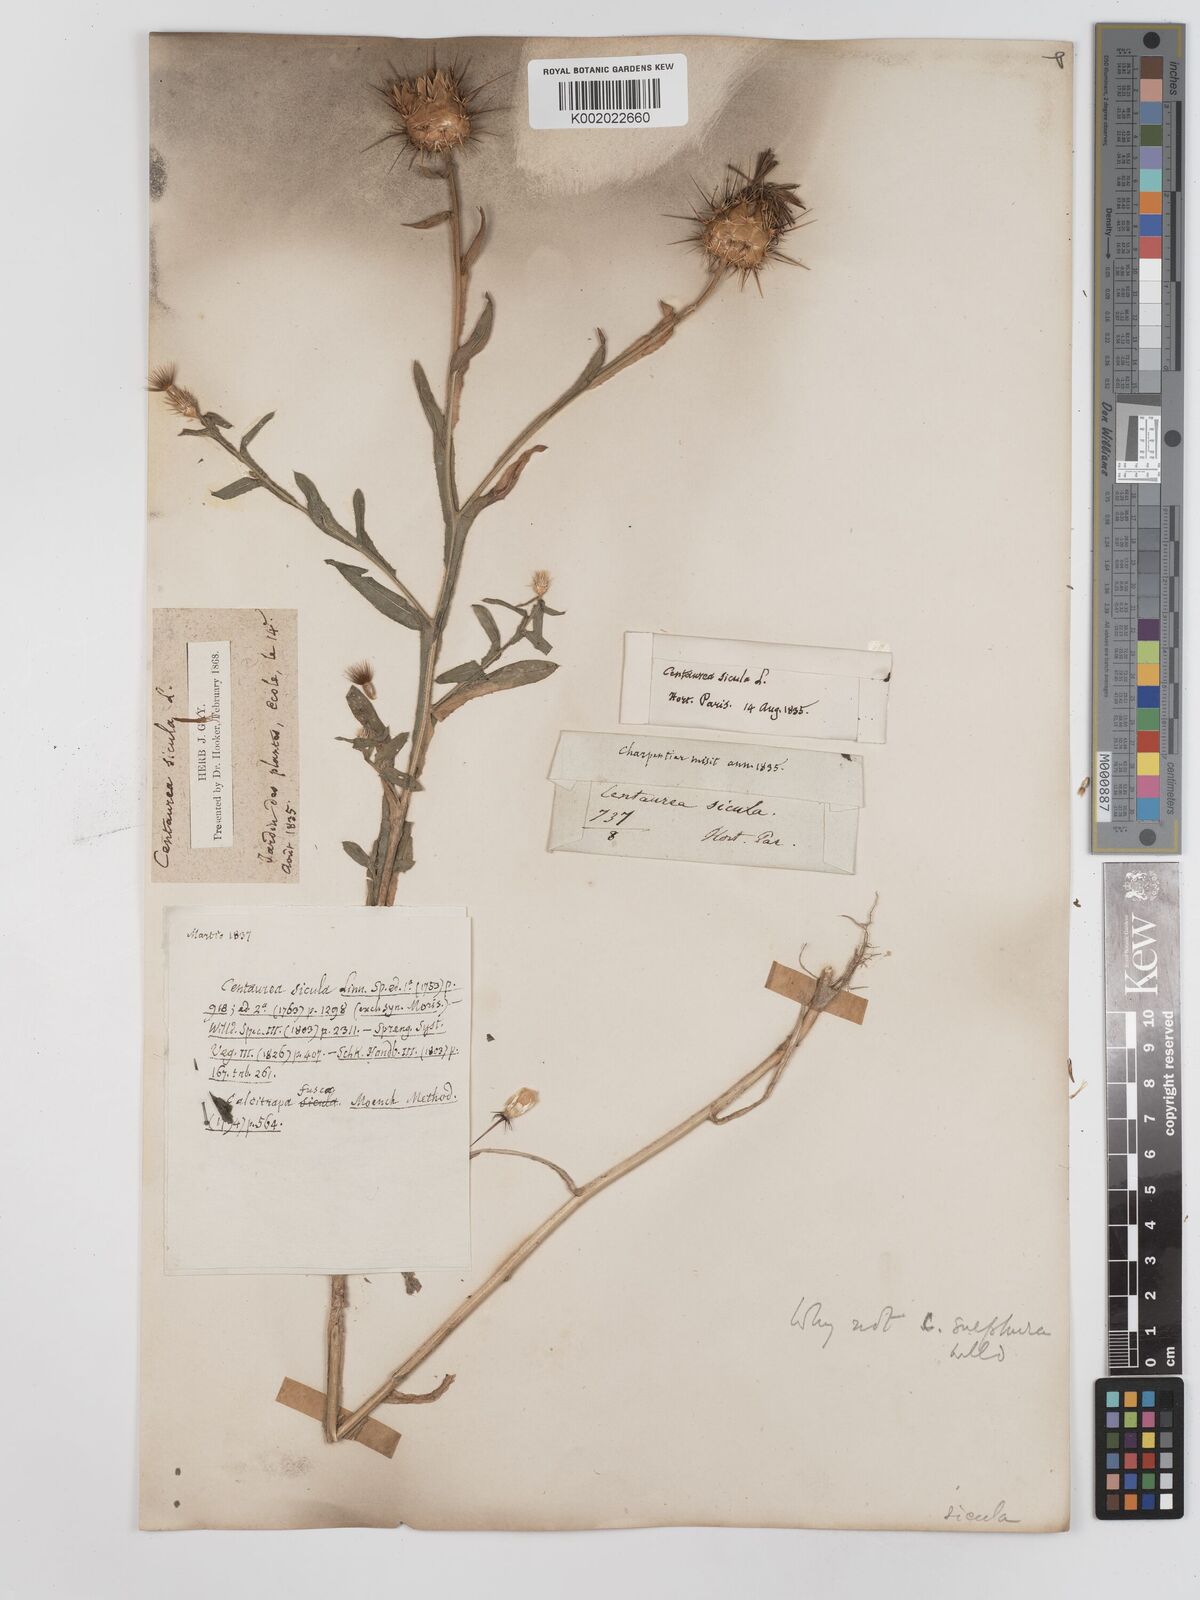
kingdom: Plantae
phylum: Tracheophyta
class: Magnoliopsida
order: Asterales
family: Asteraceae
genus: Centaurea
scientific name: Centaurea affinis
